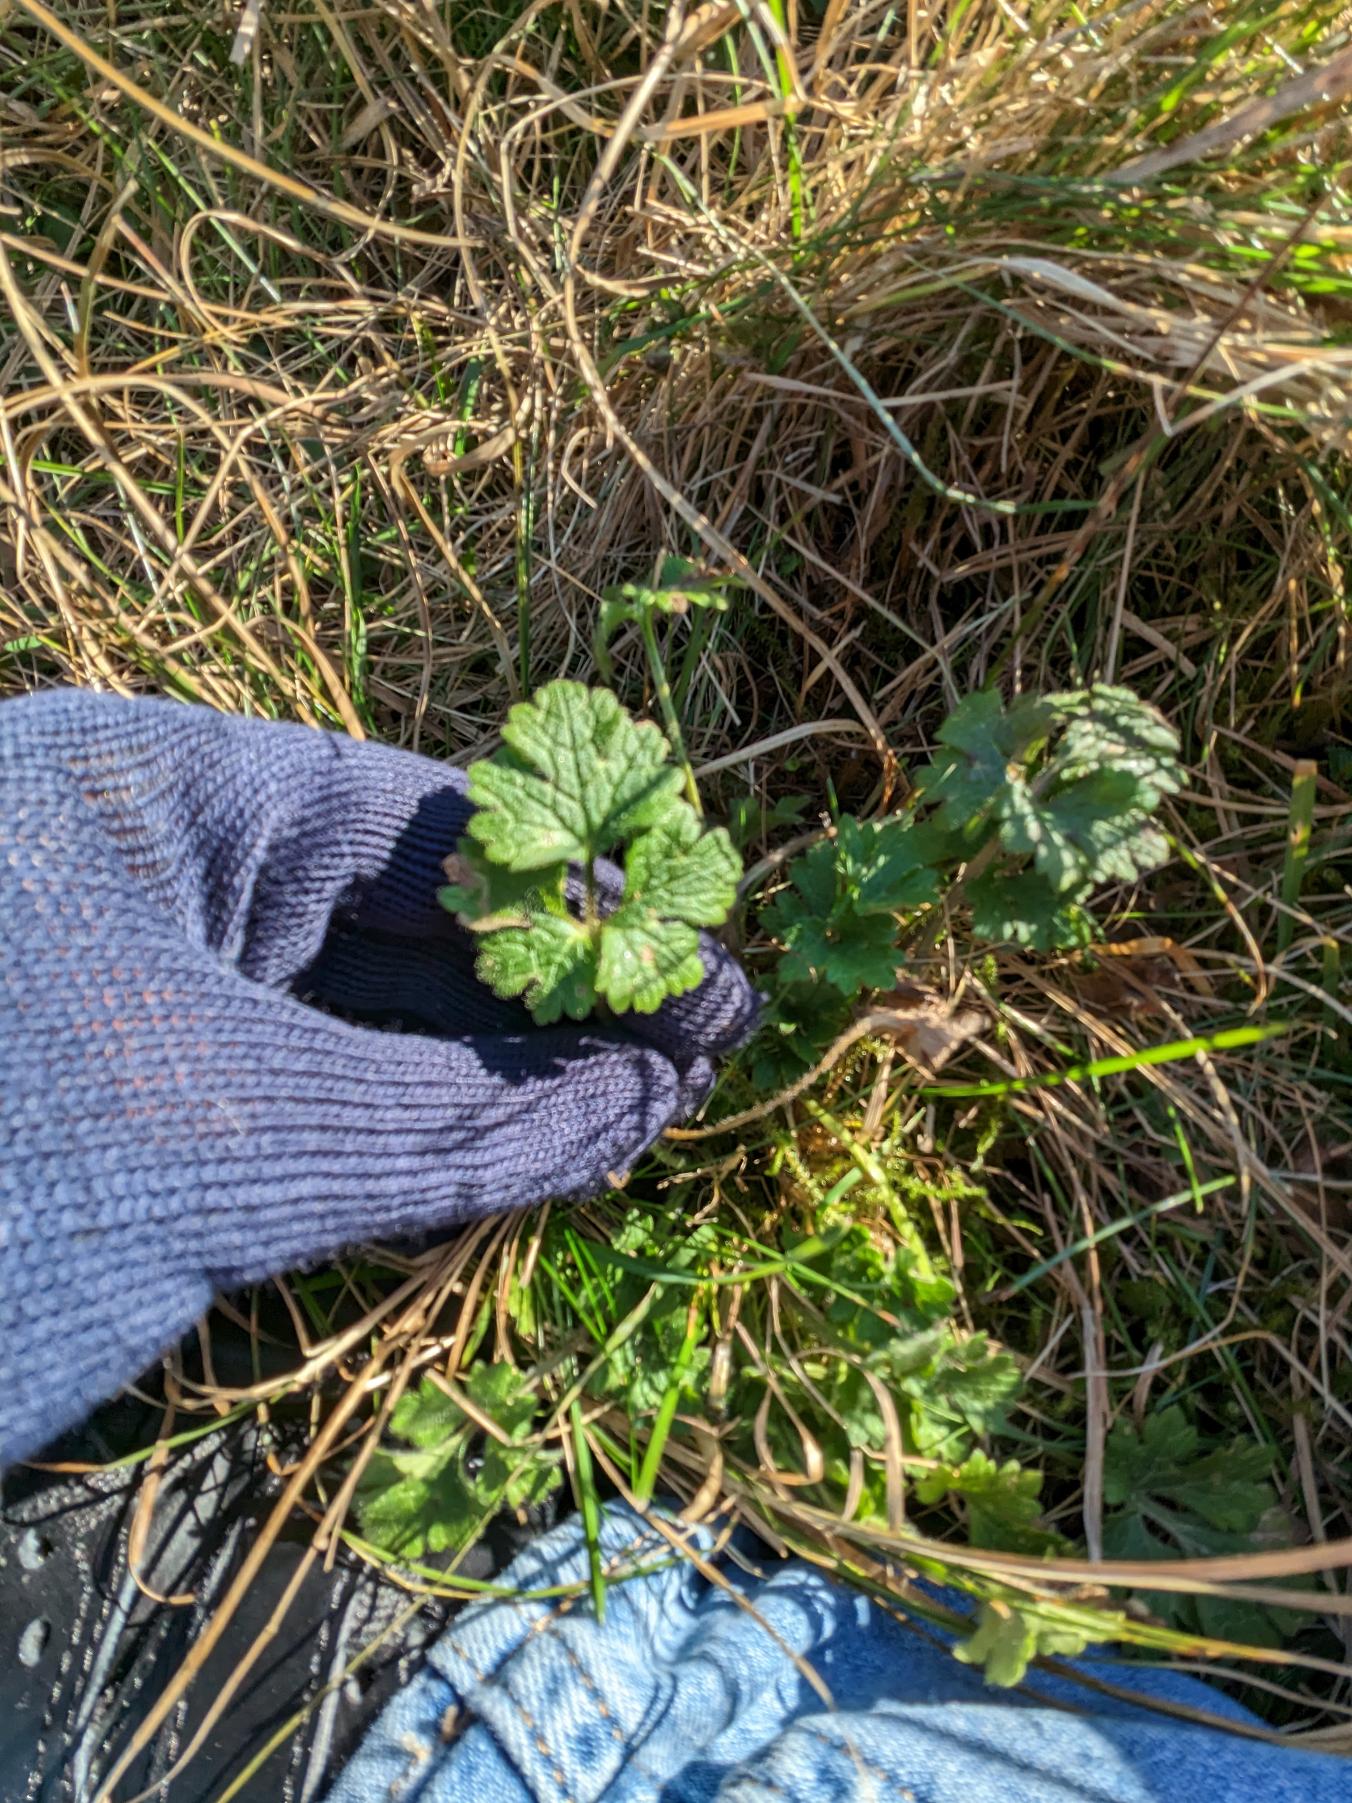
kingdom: Plantae
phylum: Tracheophyta
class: Magnoliopsida
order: Ranunculales
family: Ranunculaceae
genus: Ranunculus
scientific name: Ranunculus bulbosus
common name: Knold-ranunkel
